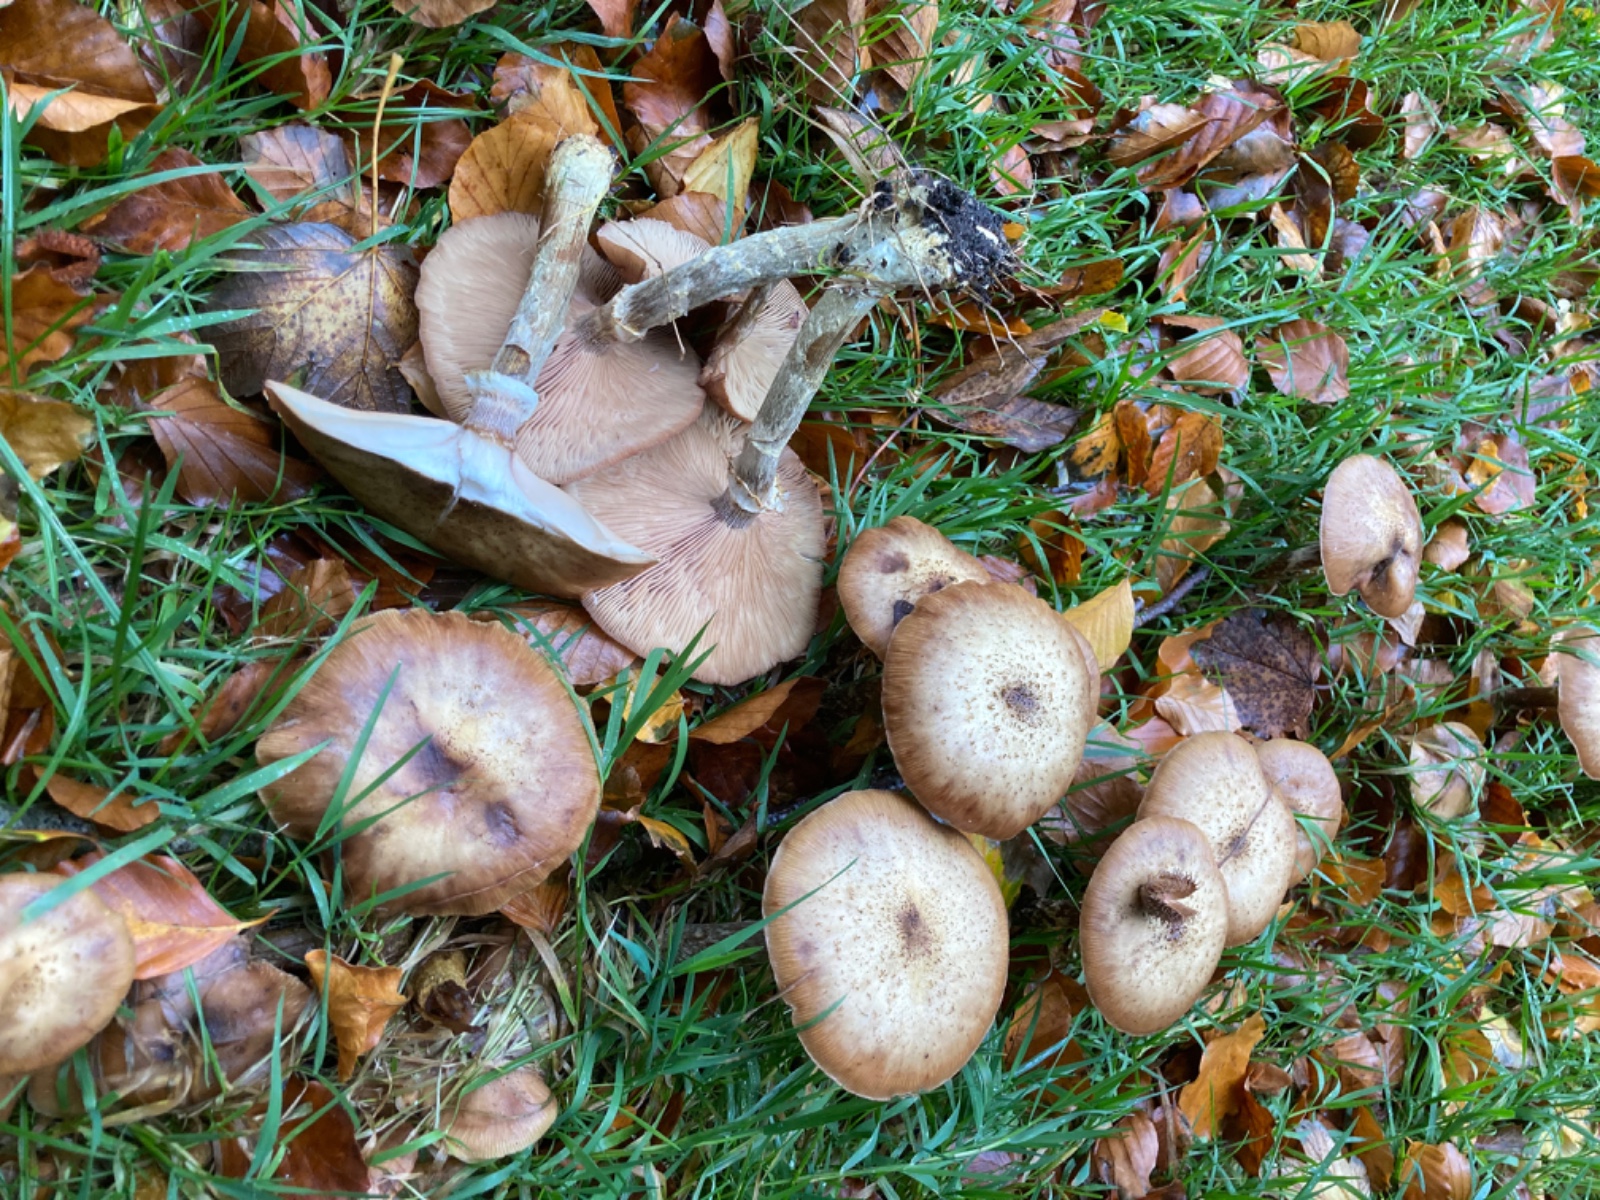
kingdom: Fungi
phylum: Basidiomycota
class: Agaricomycetes
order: Agaricales
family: Physalacriaceae
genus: Armillaria
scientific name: Armillaria lutea
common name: køllestokket honningsvamp
